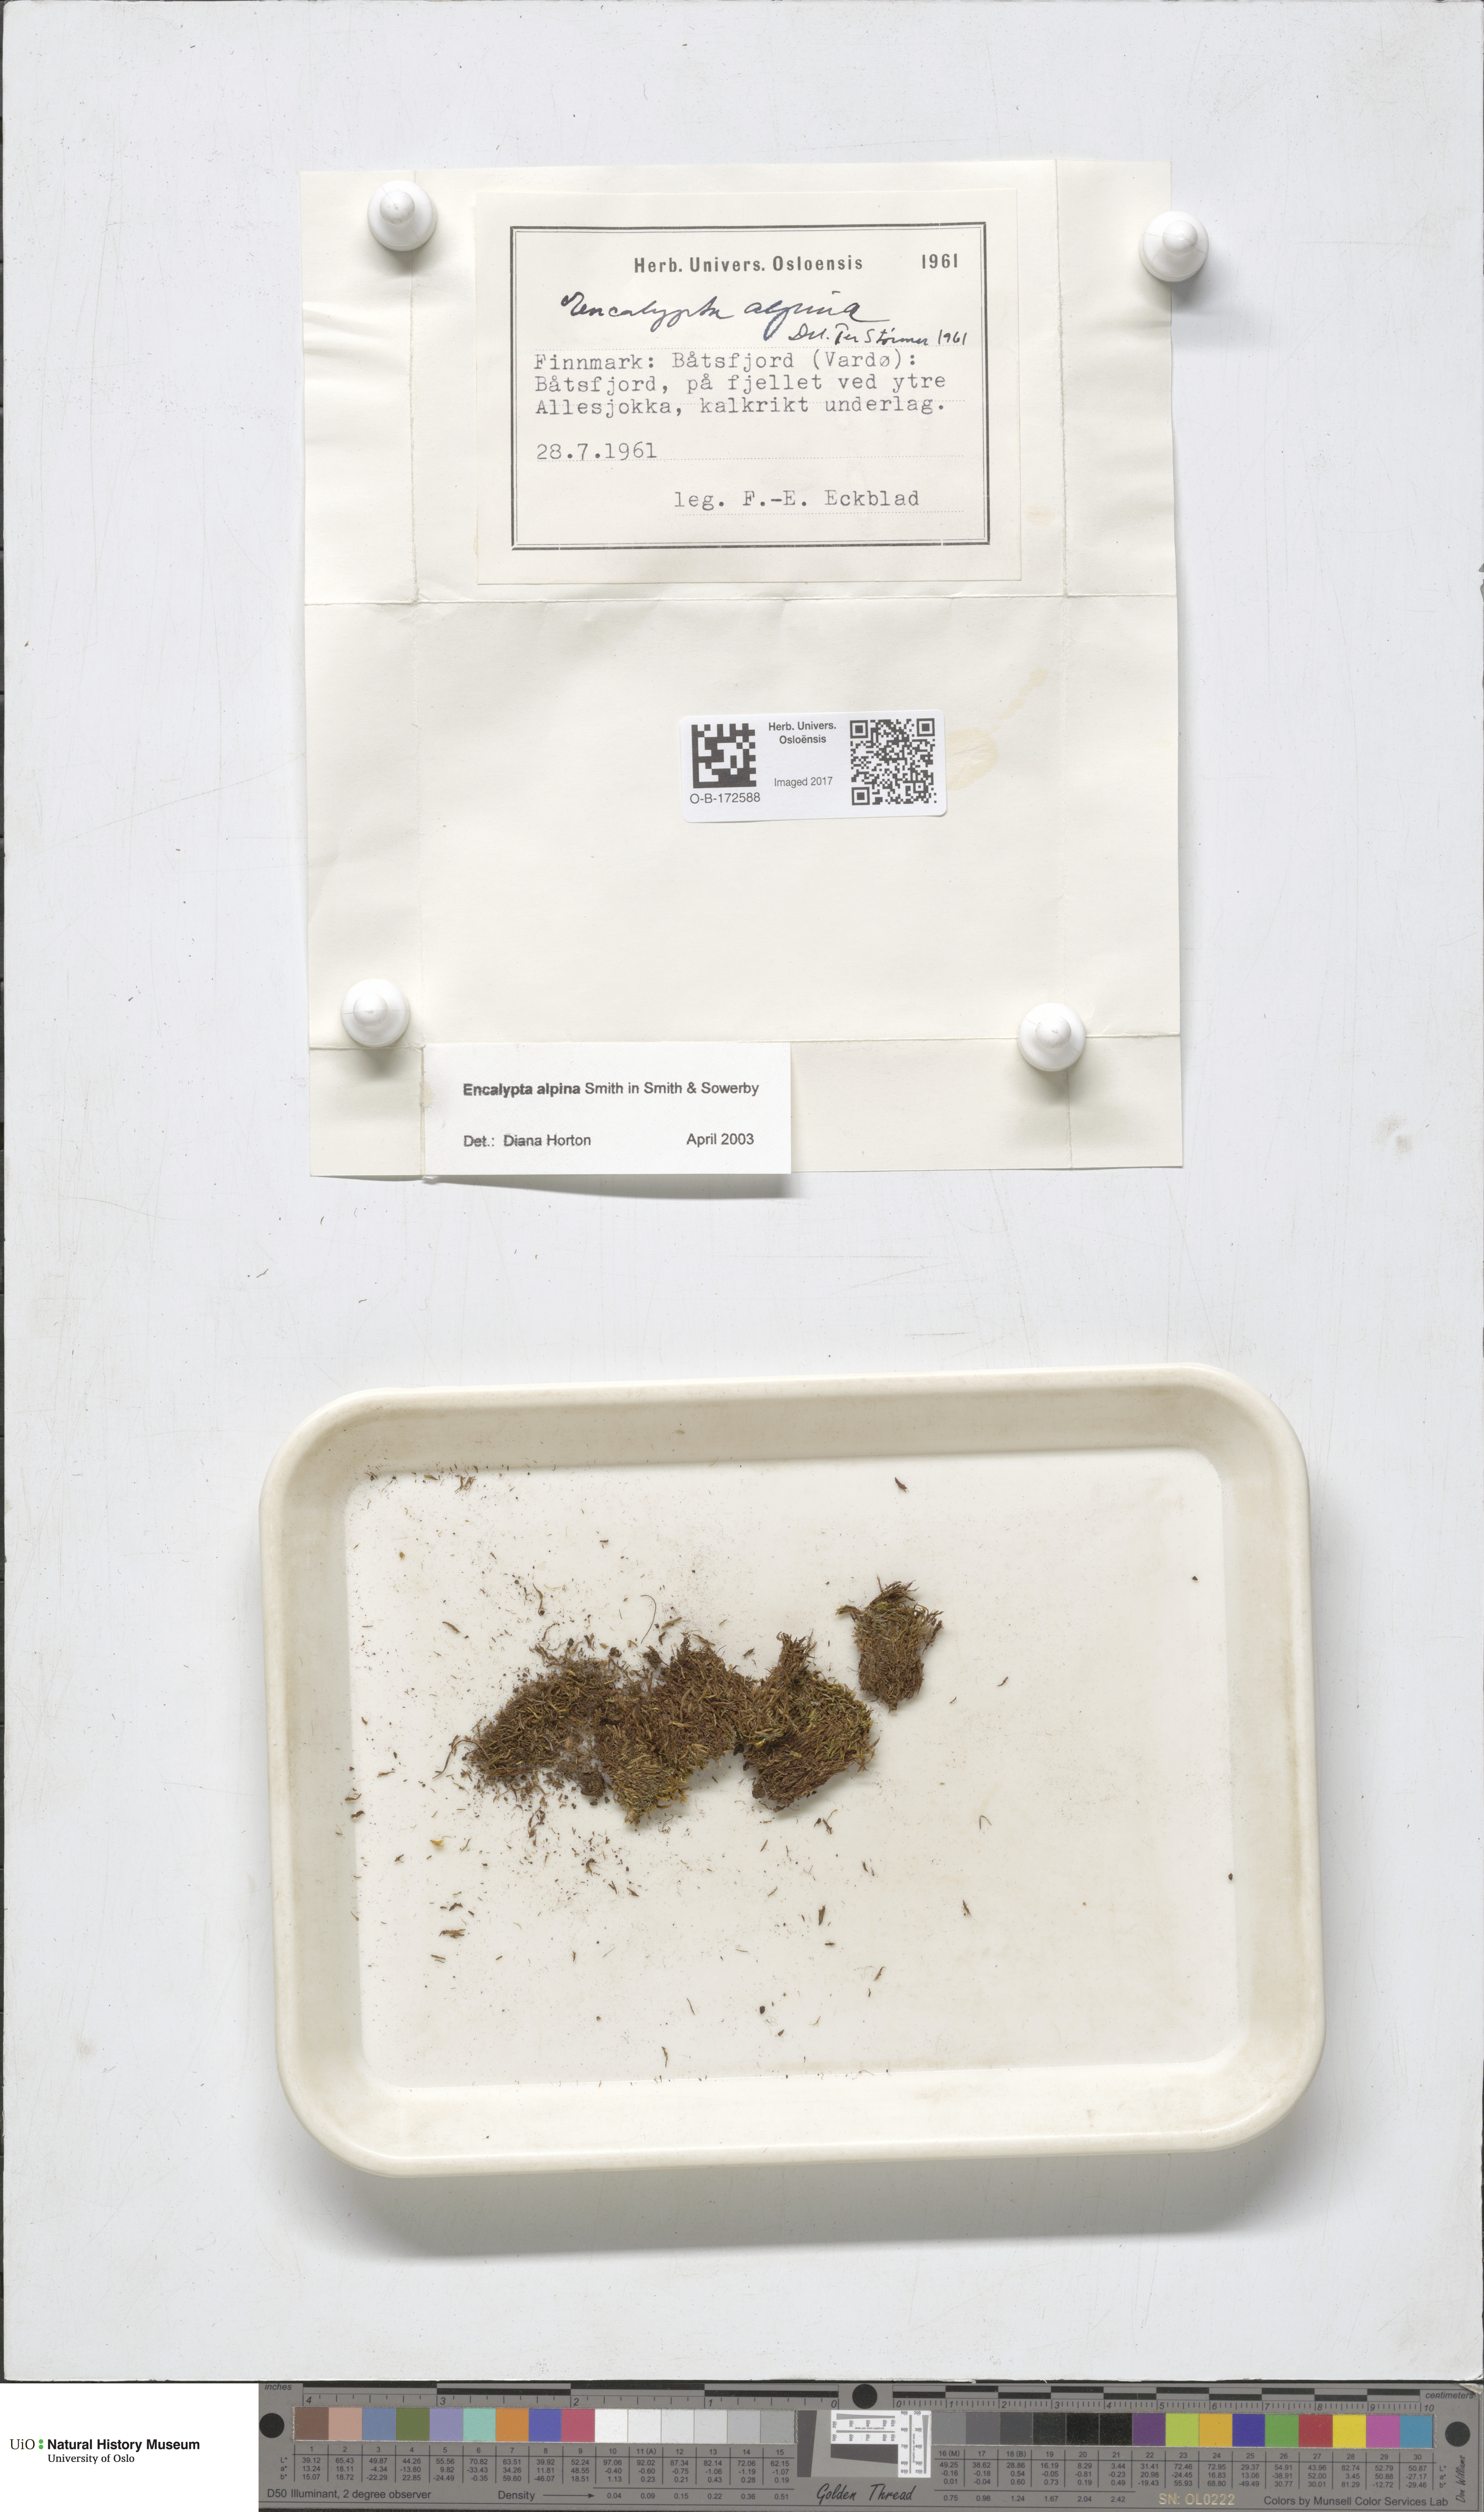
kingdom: Plantae
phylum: Bryophyta
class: Bryopsida
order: Encalyptales
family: Encalyptaceae
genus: Encalypta
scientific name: Encalypta alpina
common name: Alpine extinguisher-moss
